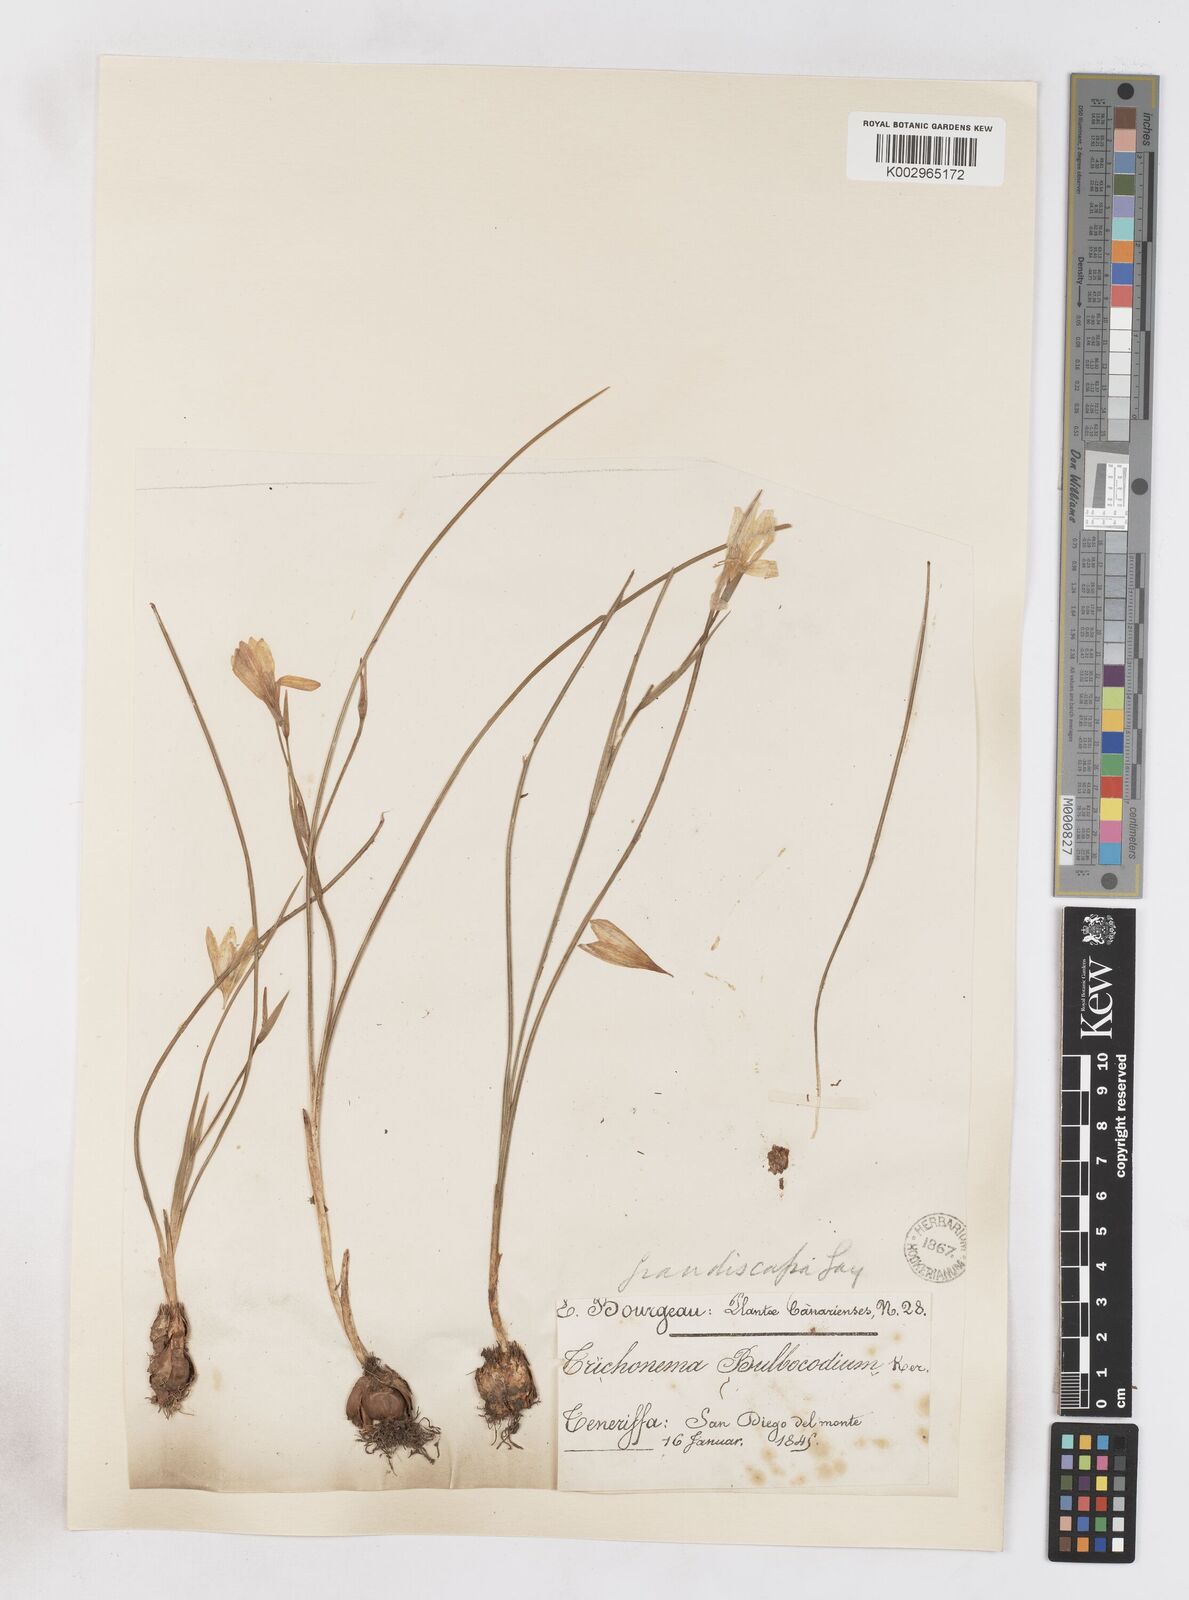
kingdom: Plantae
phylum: Tracheophyta
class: Liliopsida
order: Asparagales
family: Iridaceae
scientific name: Iridaceae
